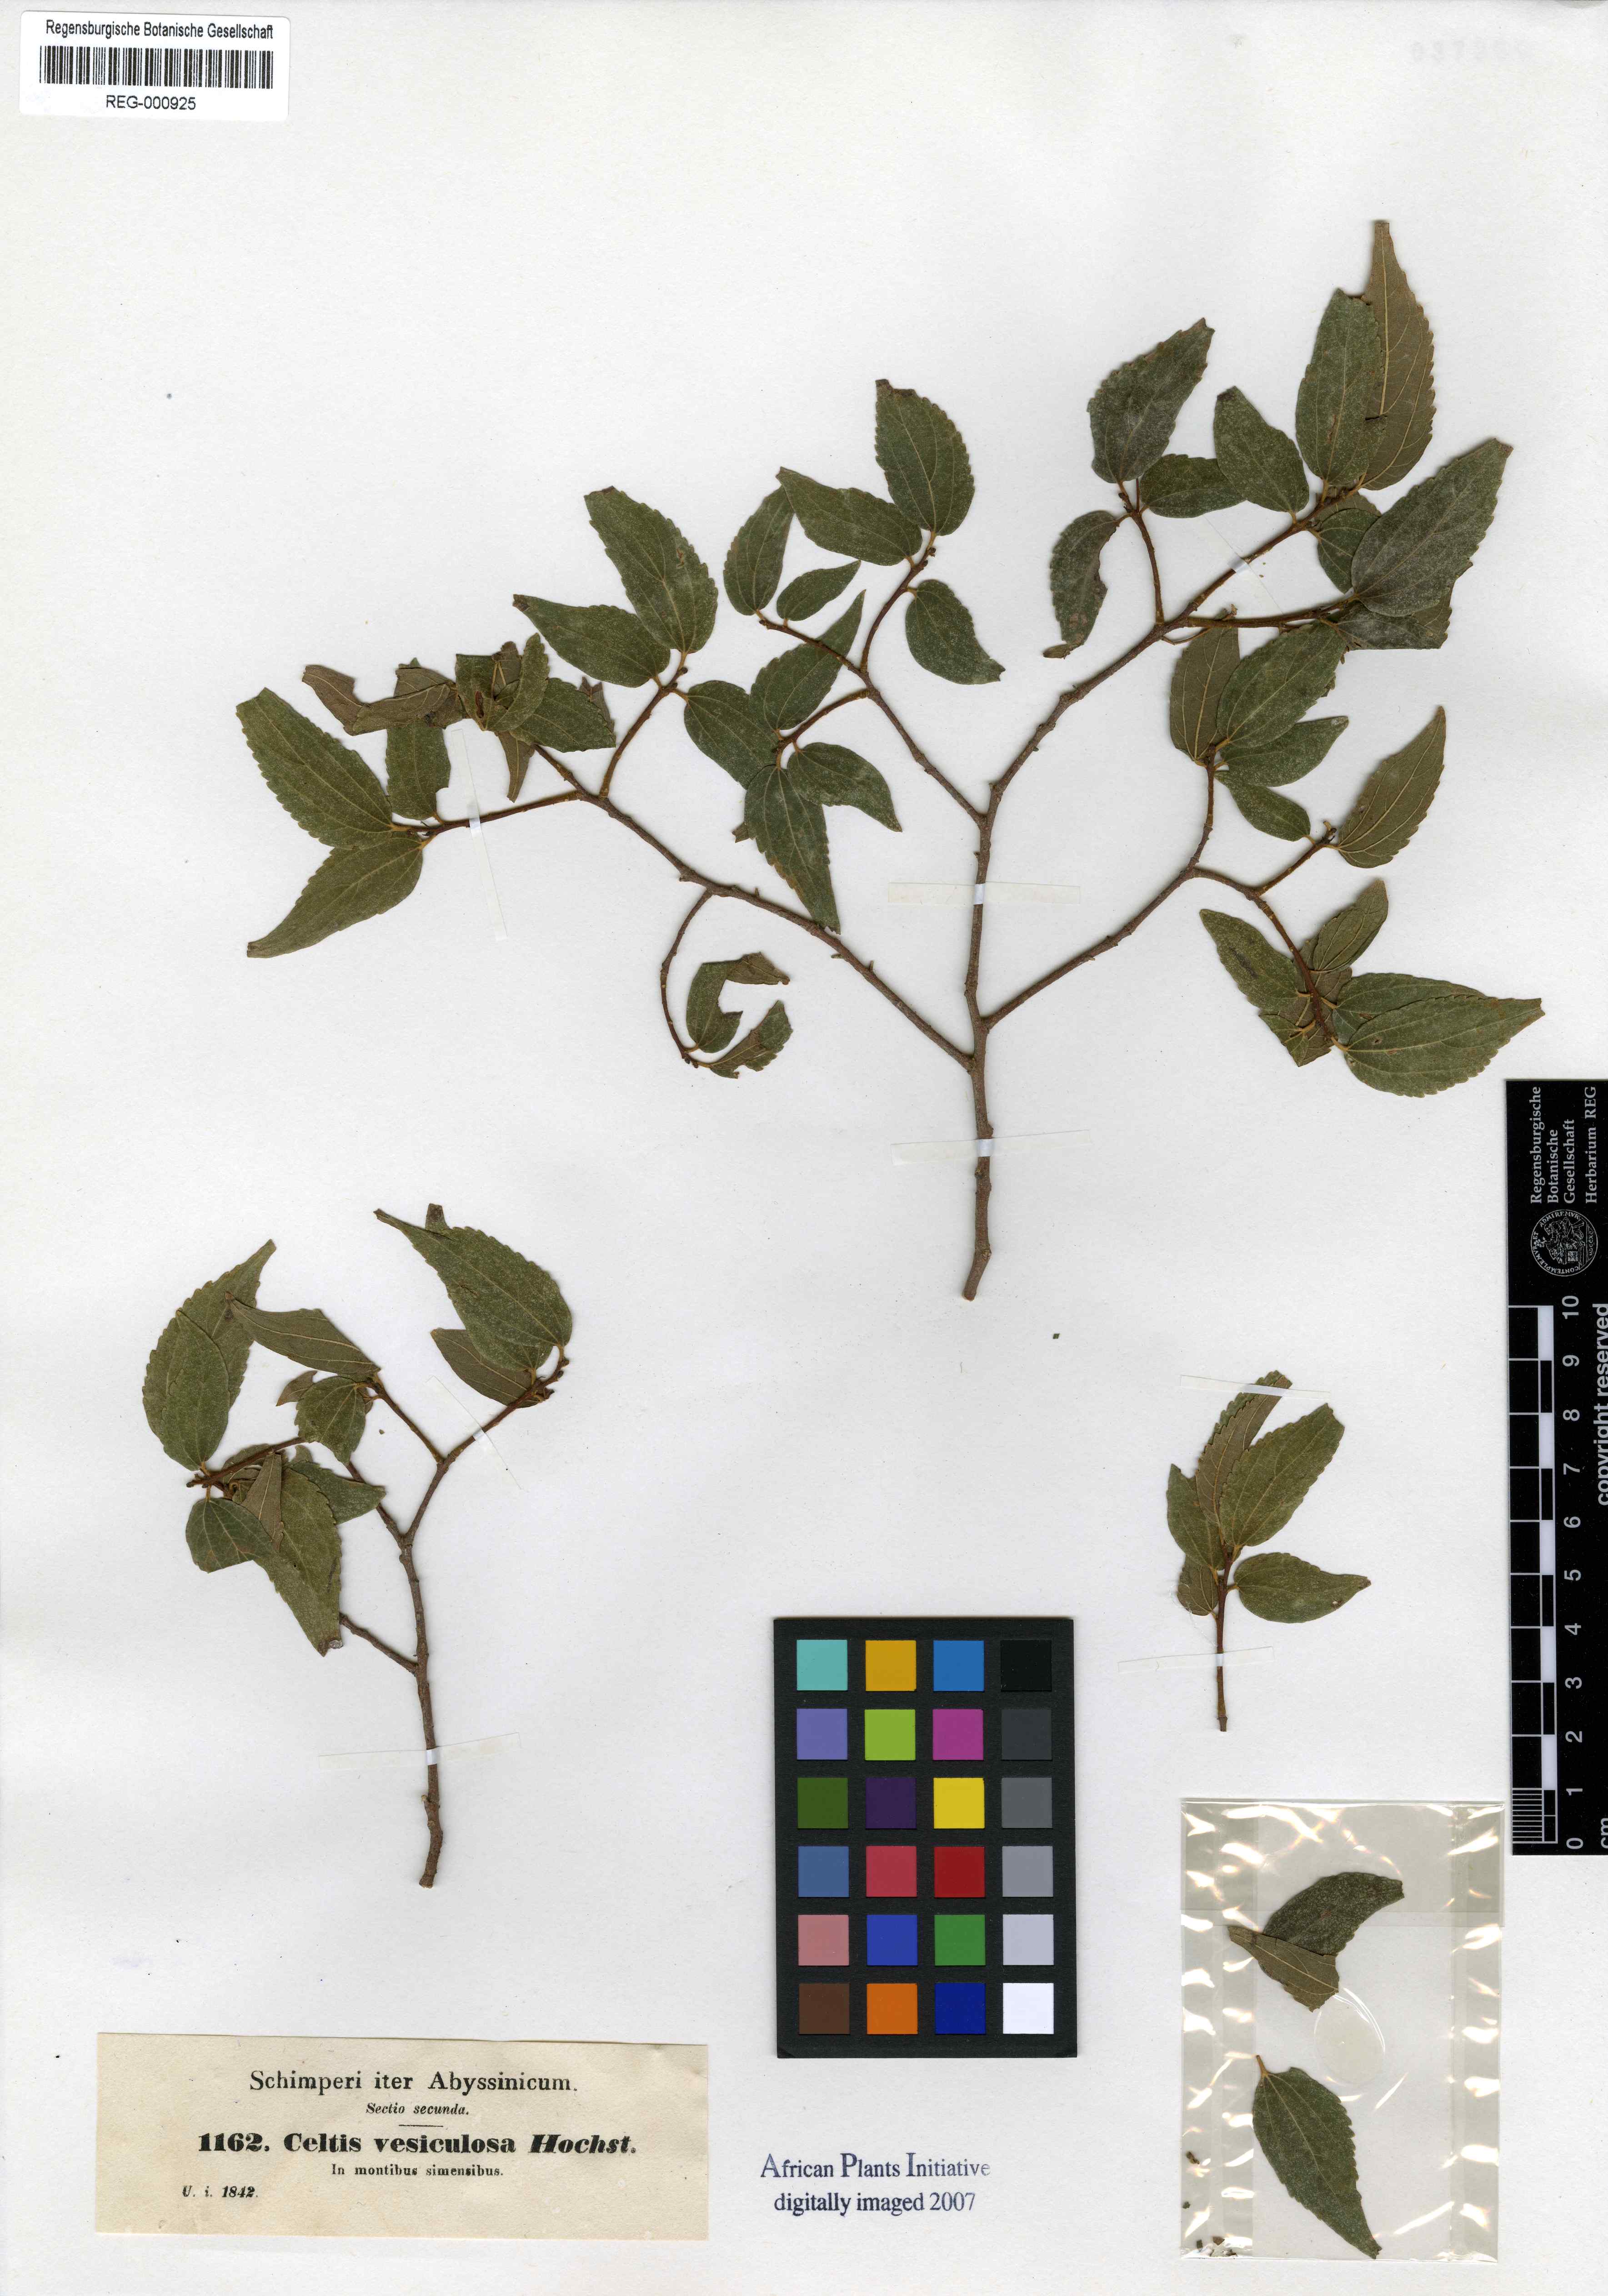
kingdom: Plantae
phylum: Tracheophyta
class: Magnoliopsida
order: Rosales
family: Cannabaceae
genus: Celtis
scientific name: Celtis africana
